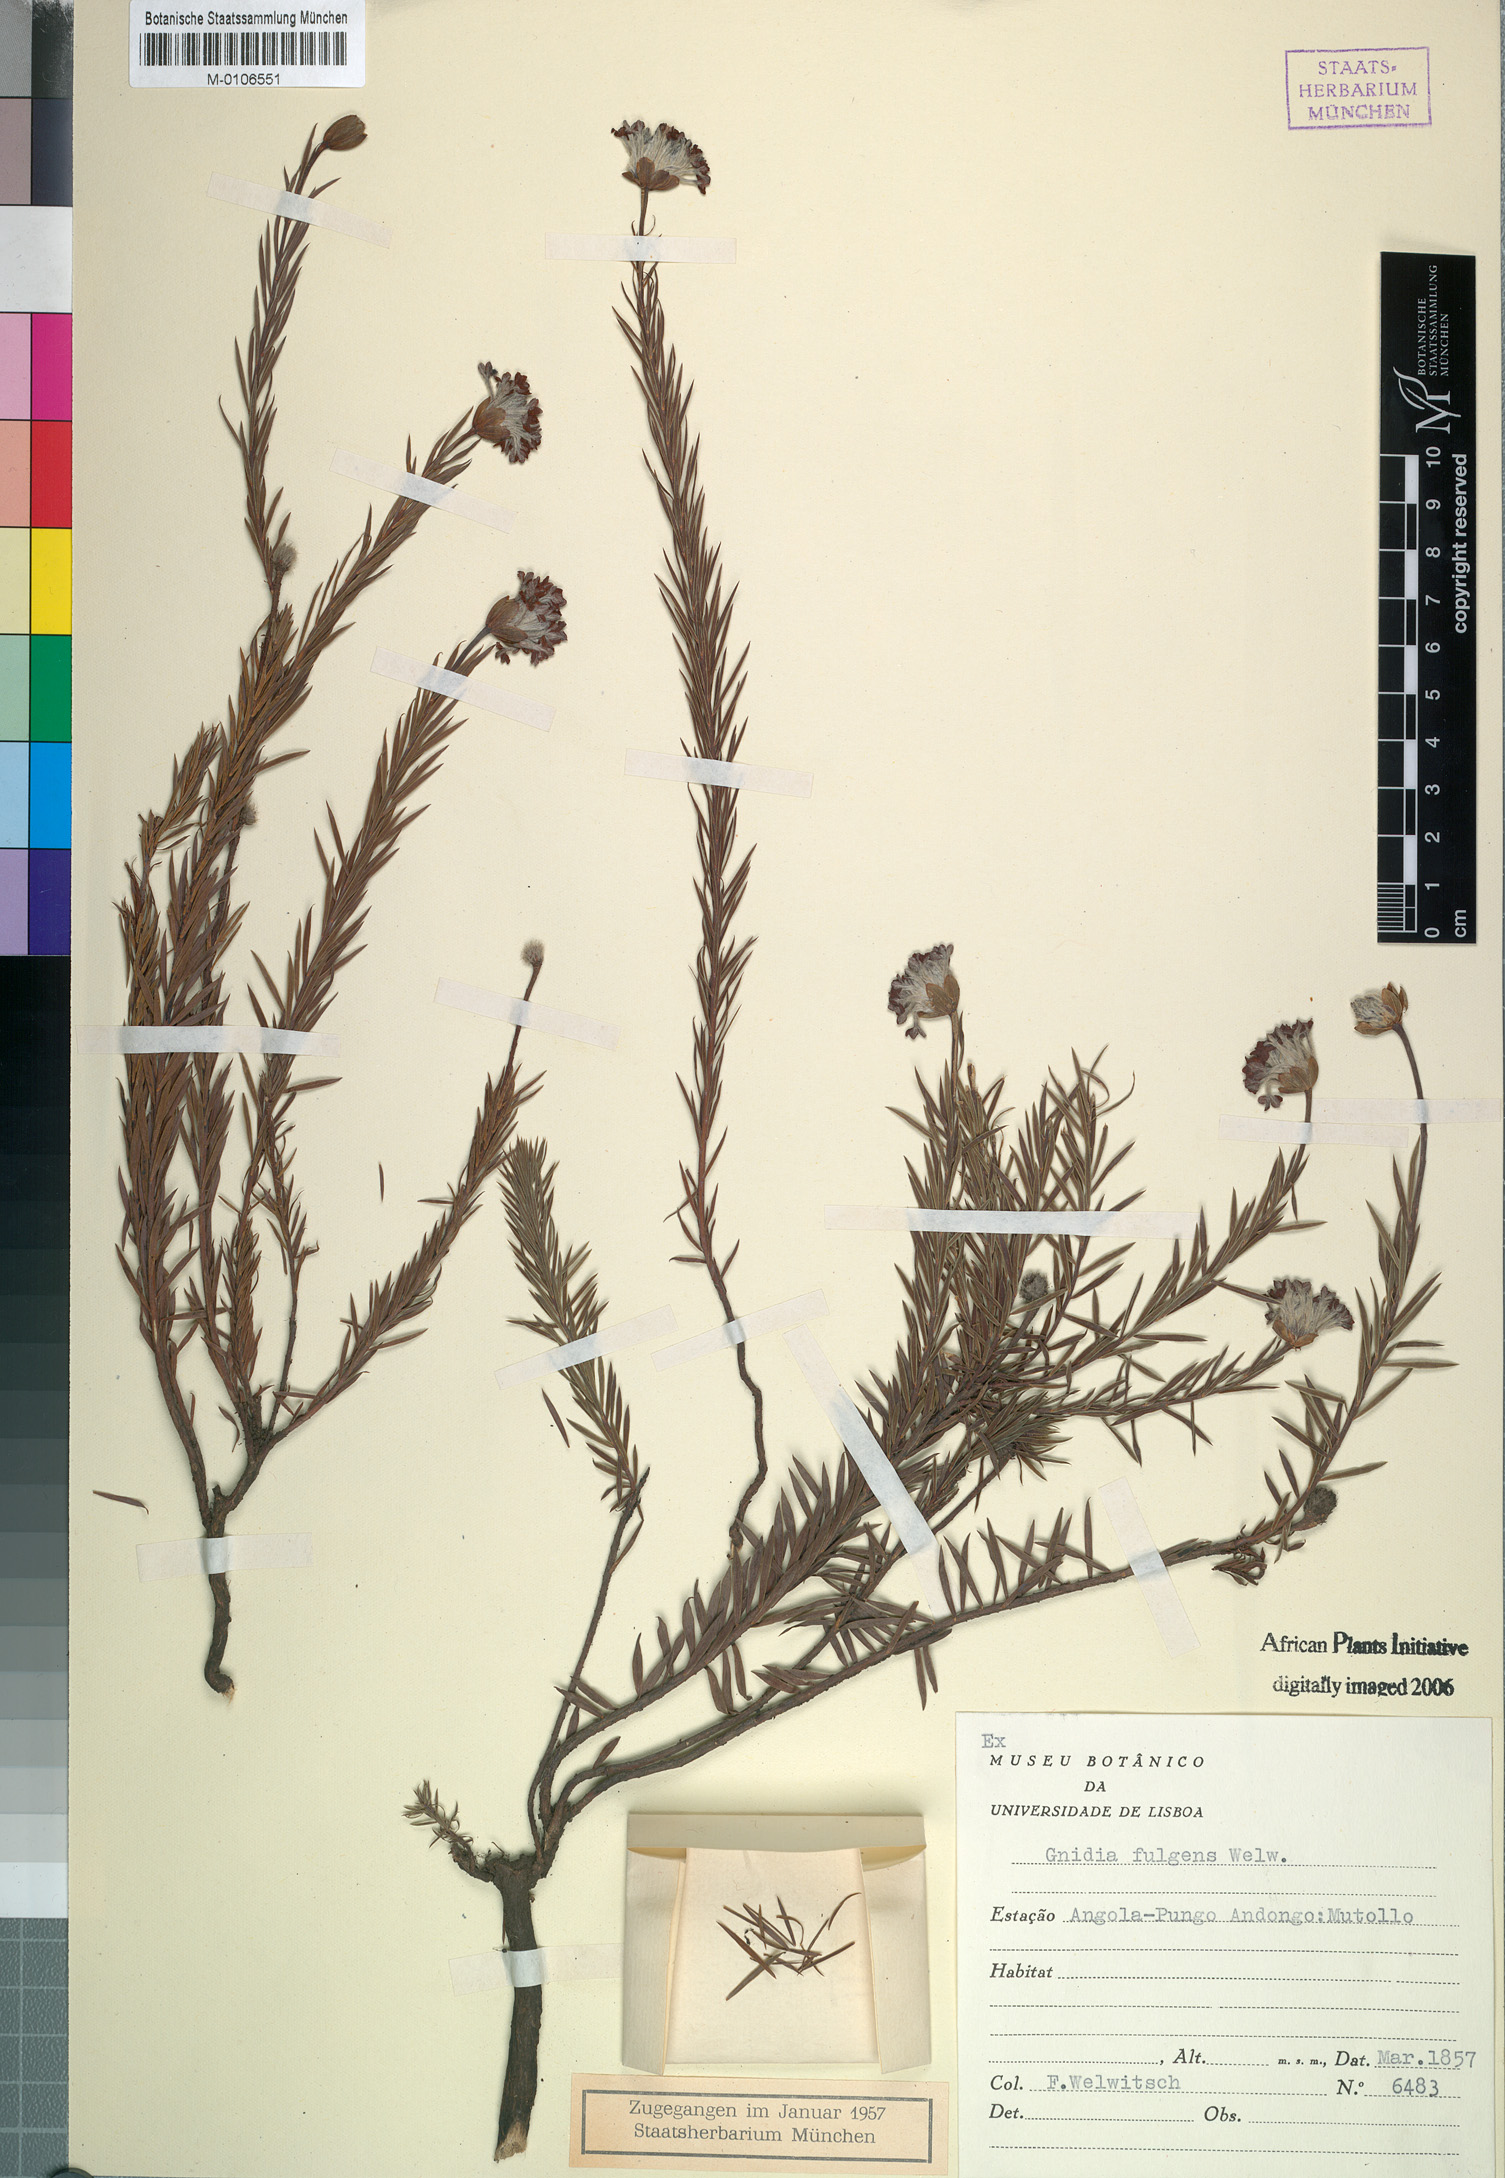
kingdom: Plantae
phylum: Tracheophyta
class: Magnoliopsida
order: Malvales
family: Thymelaeaceae
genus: Gnidia
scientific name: Gnidia fulgens
